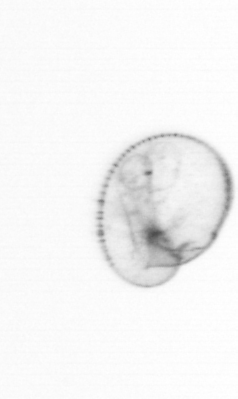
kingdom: Chromista
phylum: Myzozoa
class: Dinophyceae
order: Noctilucales
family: Noctilucaceae
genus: Noctiluca
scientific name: Noctiluca scintillans
